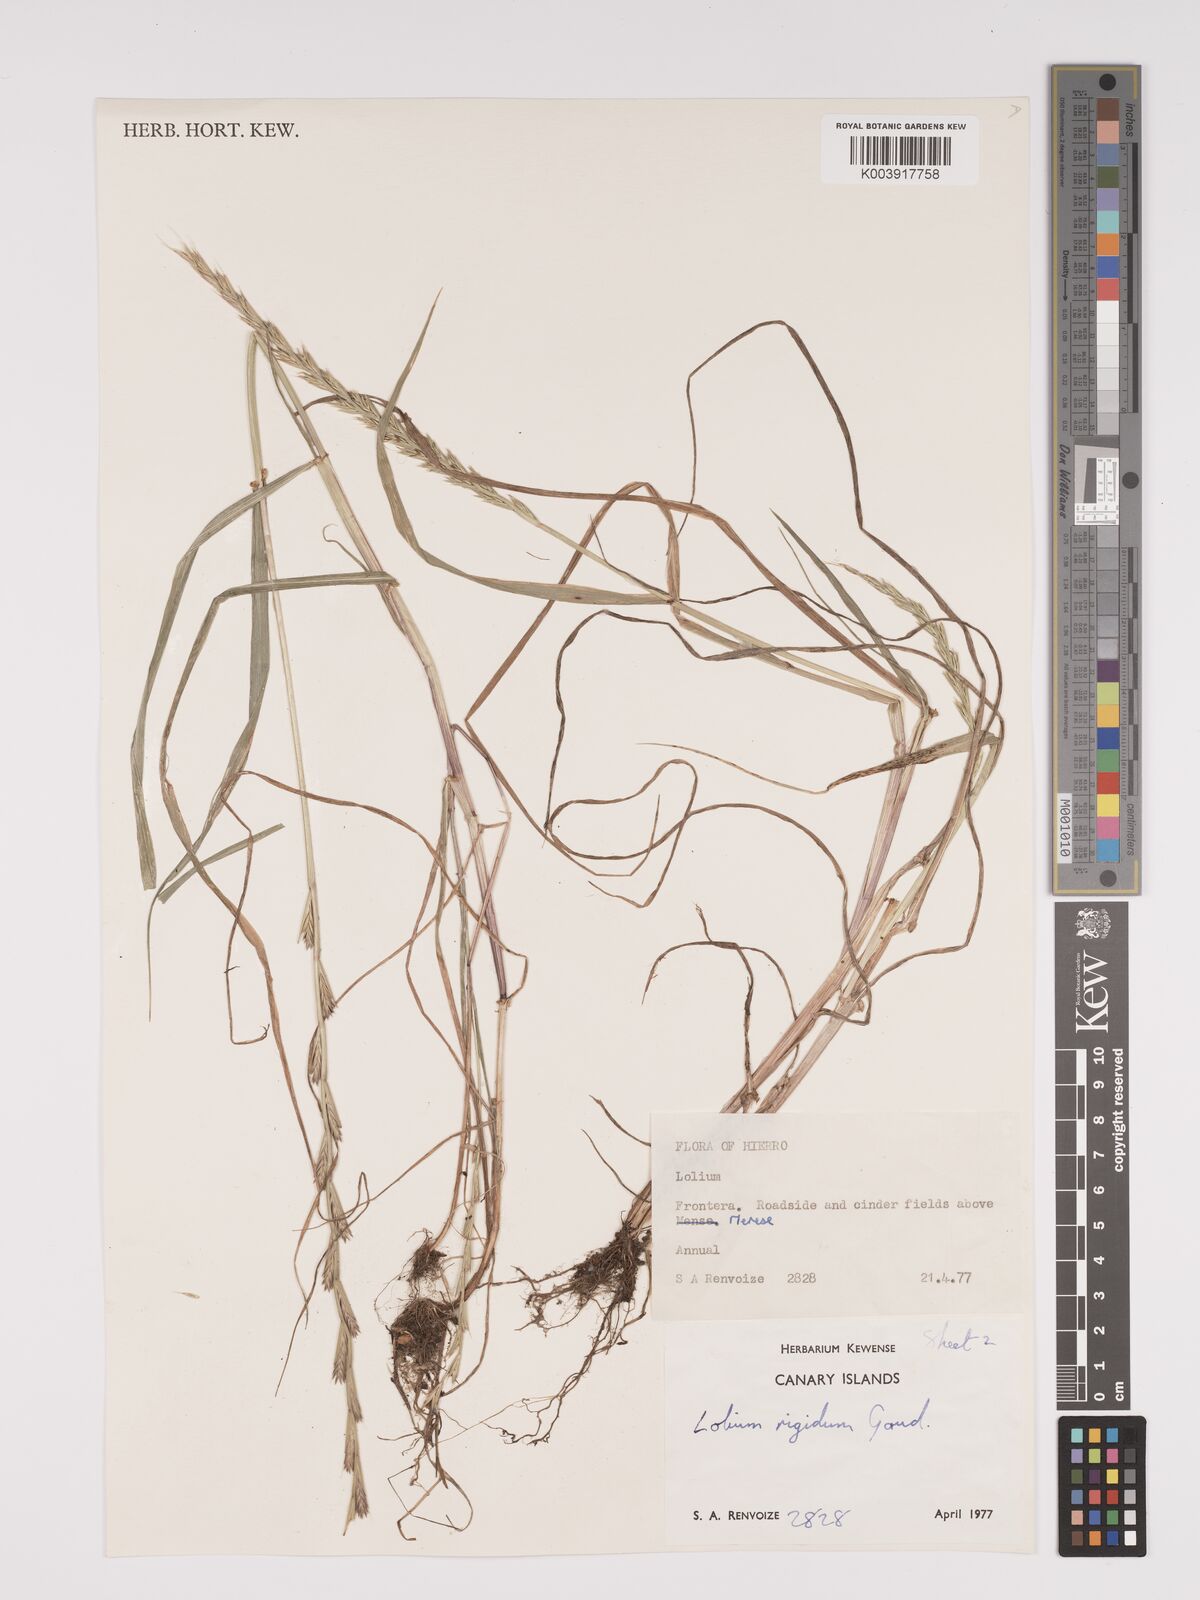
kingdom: Plantae
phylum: Tracheophyta
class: Liliopsida
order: Poales
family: Poaceae
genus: Lolium
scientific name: Lolium rigidum
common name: Wimmera ryegrass
